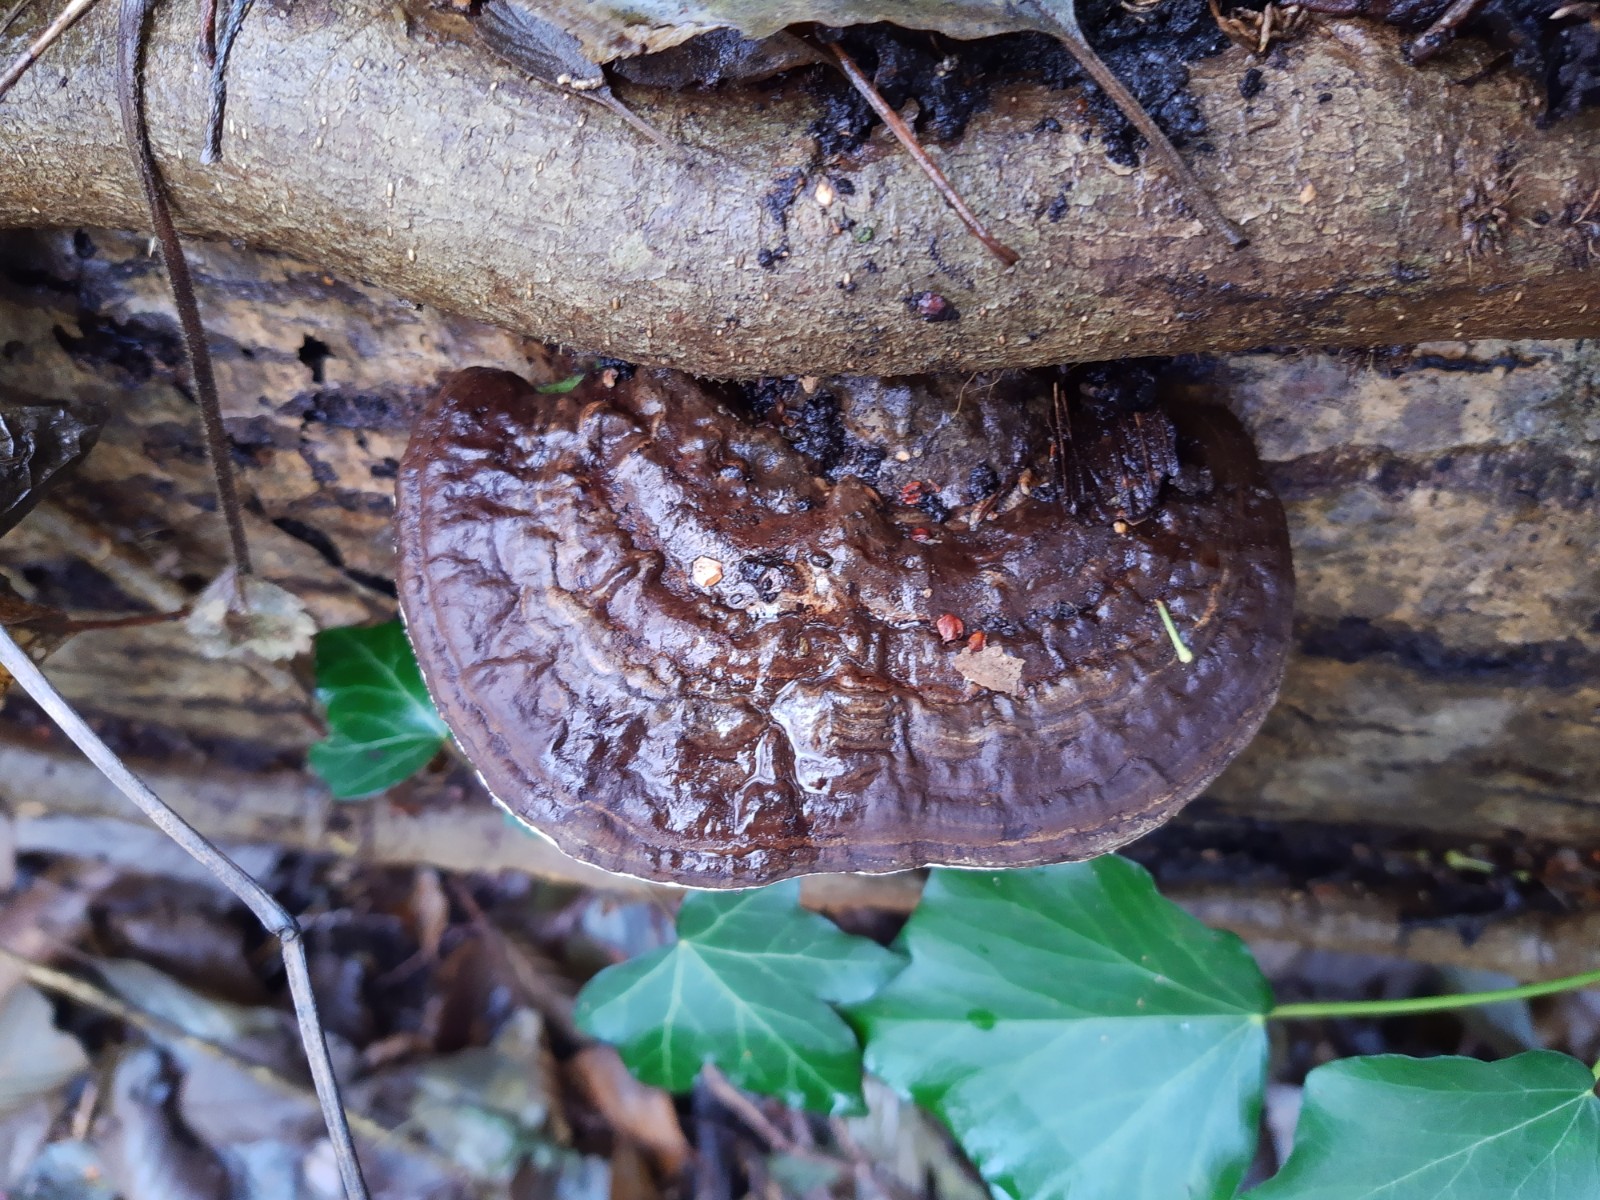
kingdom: Fungi
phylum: Basidiomycota
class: Agaricomycetes
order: Polyporales
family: Polyporaceae
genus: Ganoderma
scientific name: Ganoderma applanatum
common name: flad lakporesvamp
